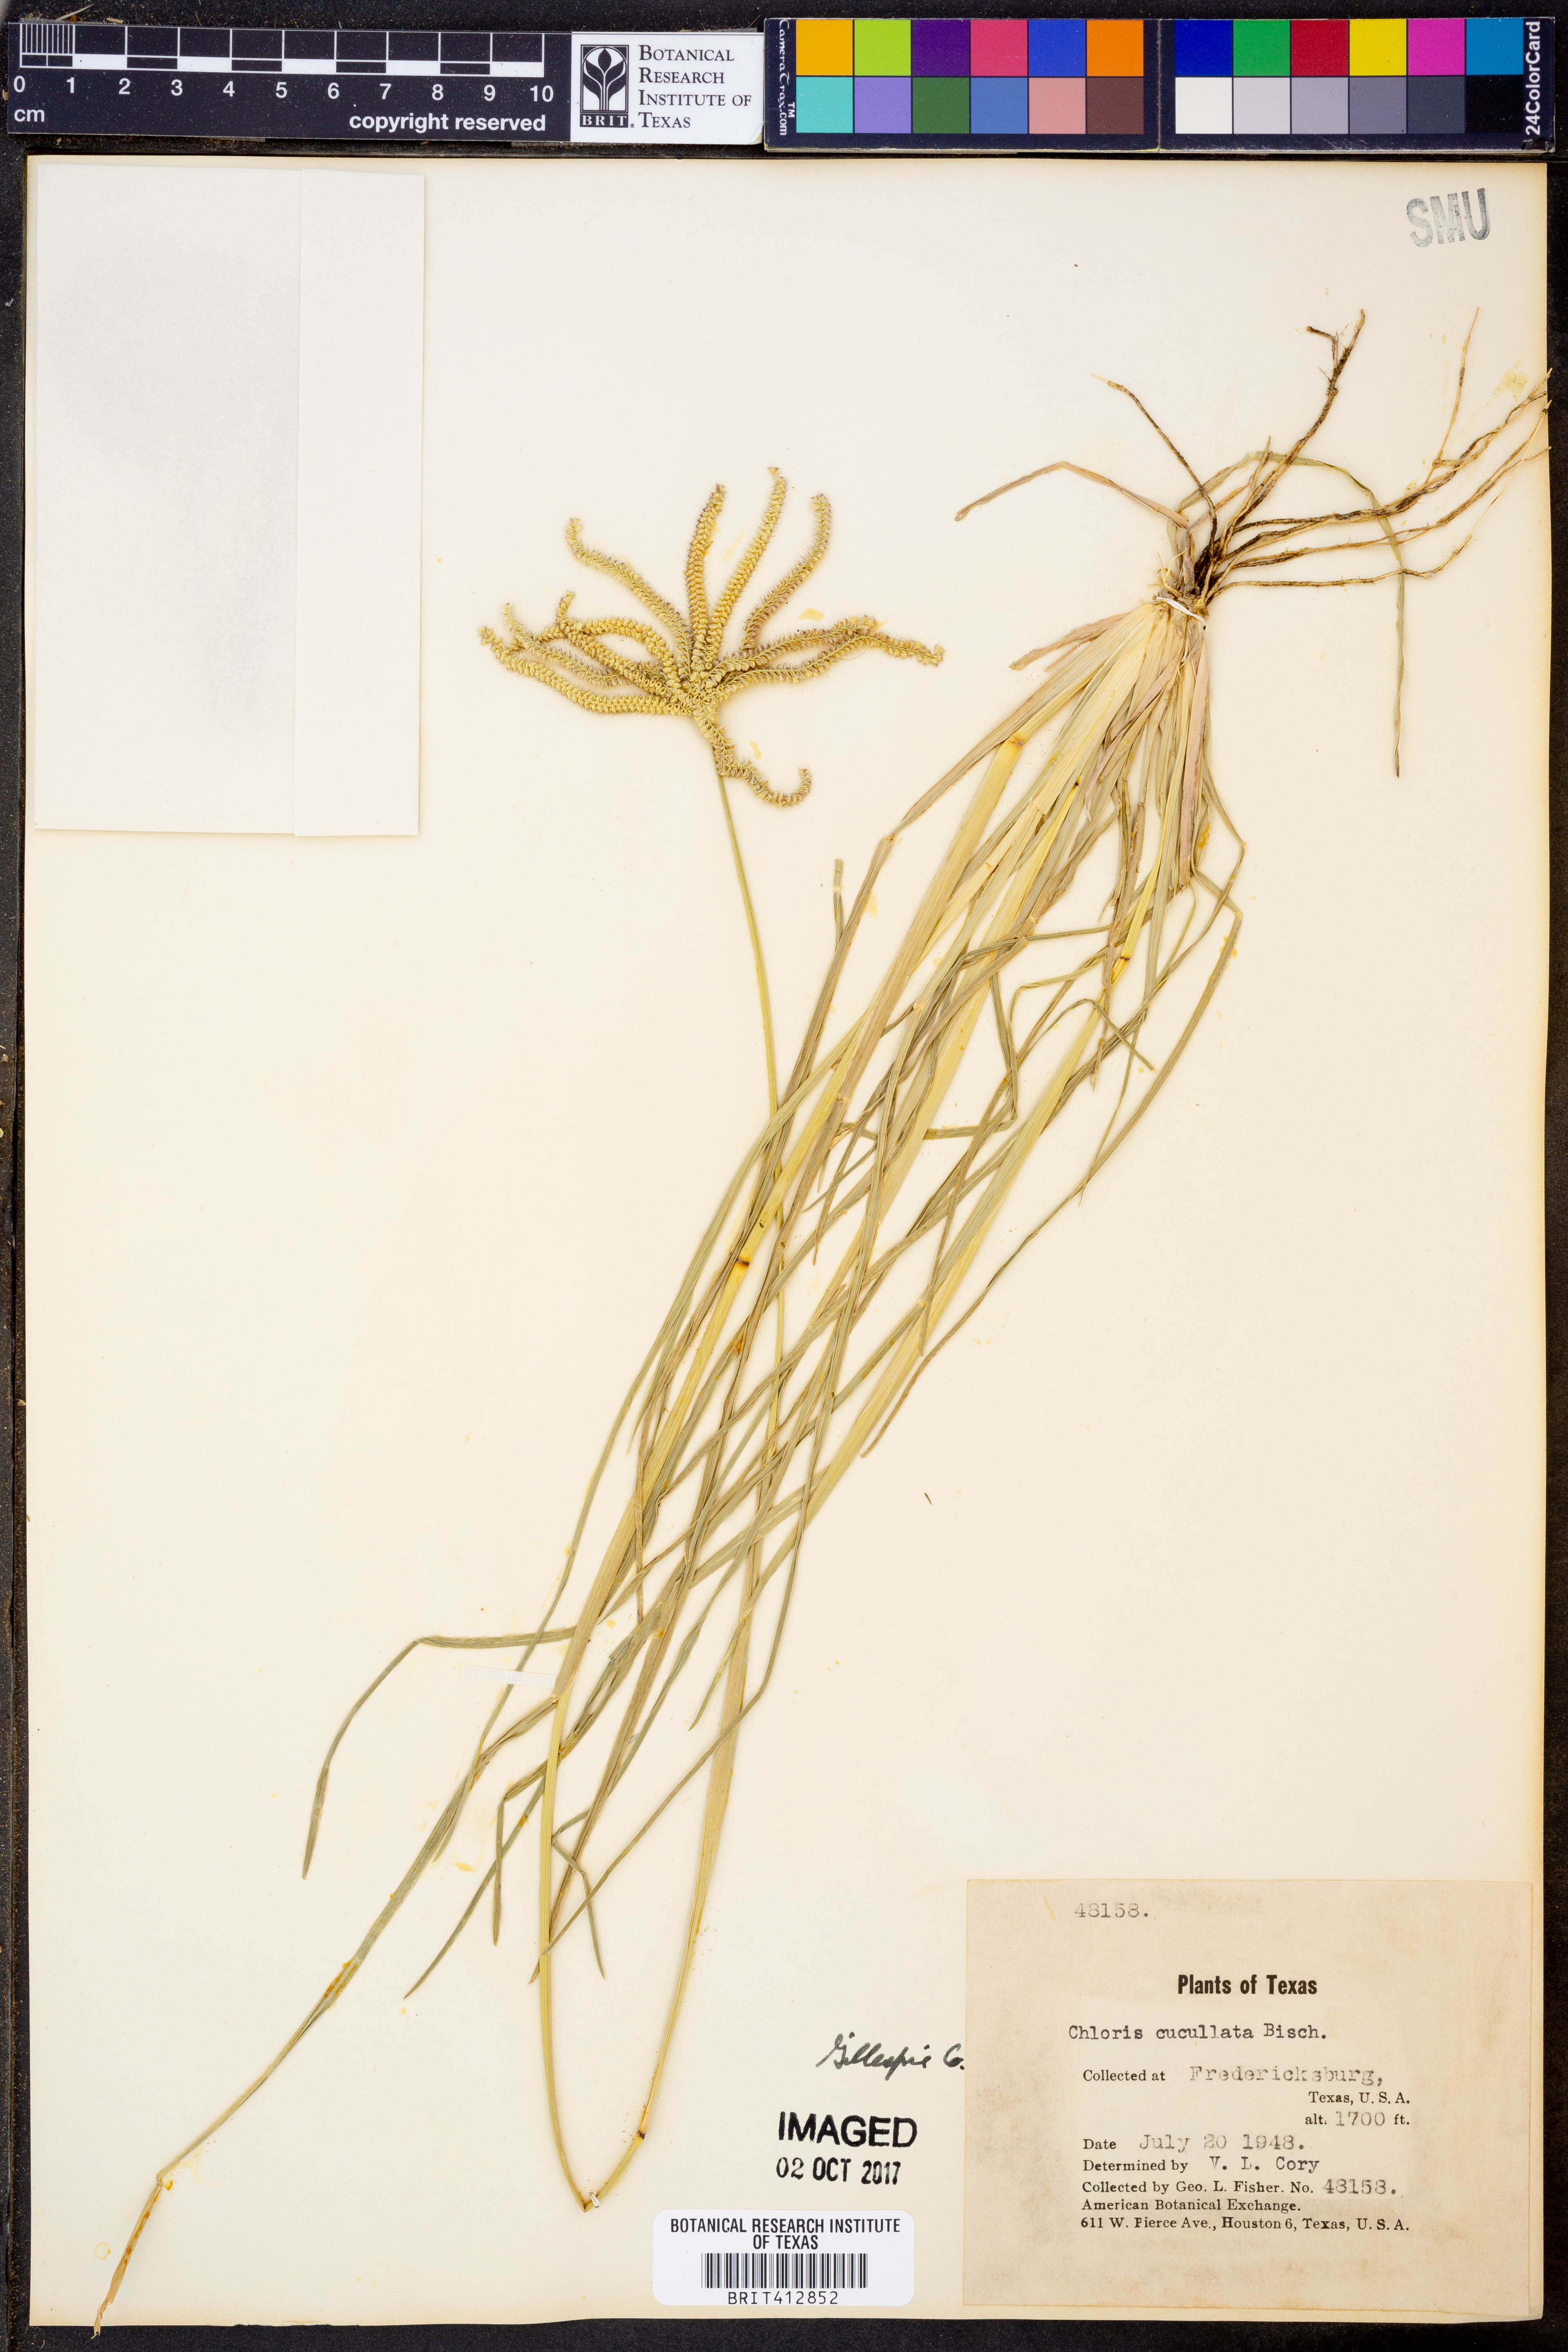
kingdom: Plantae
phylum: Tracheophyta
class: Liliopsida
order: Poales
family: Poaceae
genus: Chloris
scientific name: Chloris cucullata
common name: Hooded windmill grass
